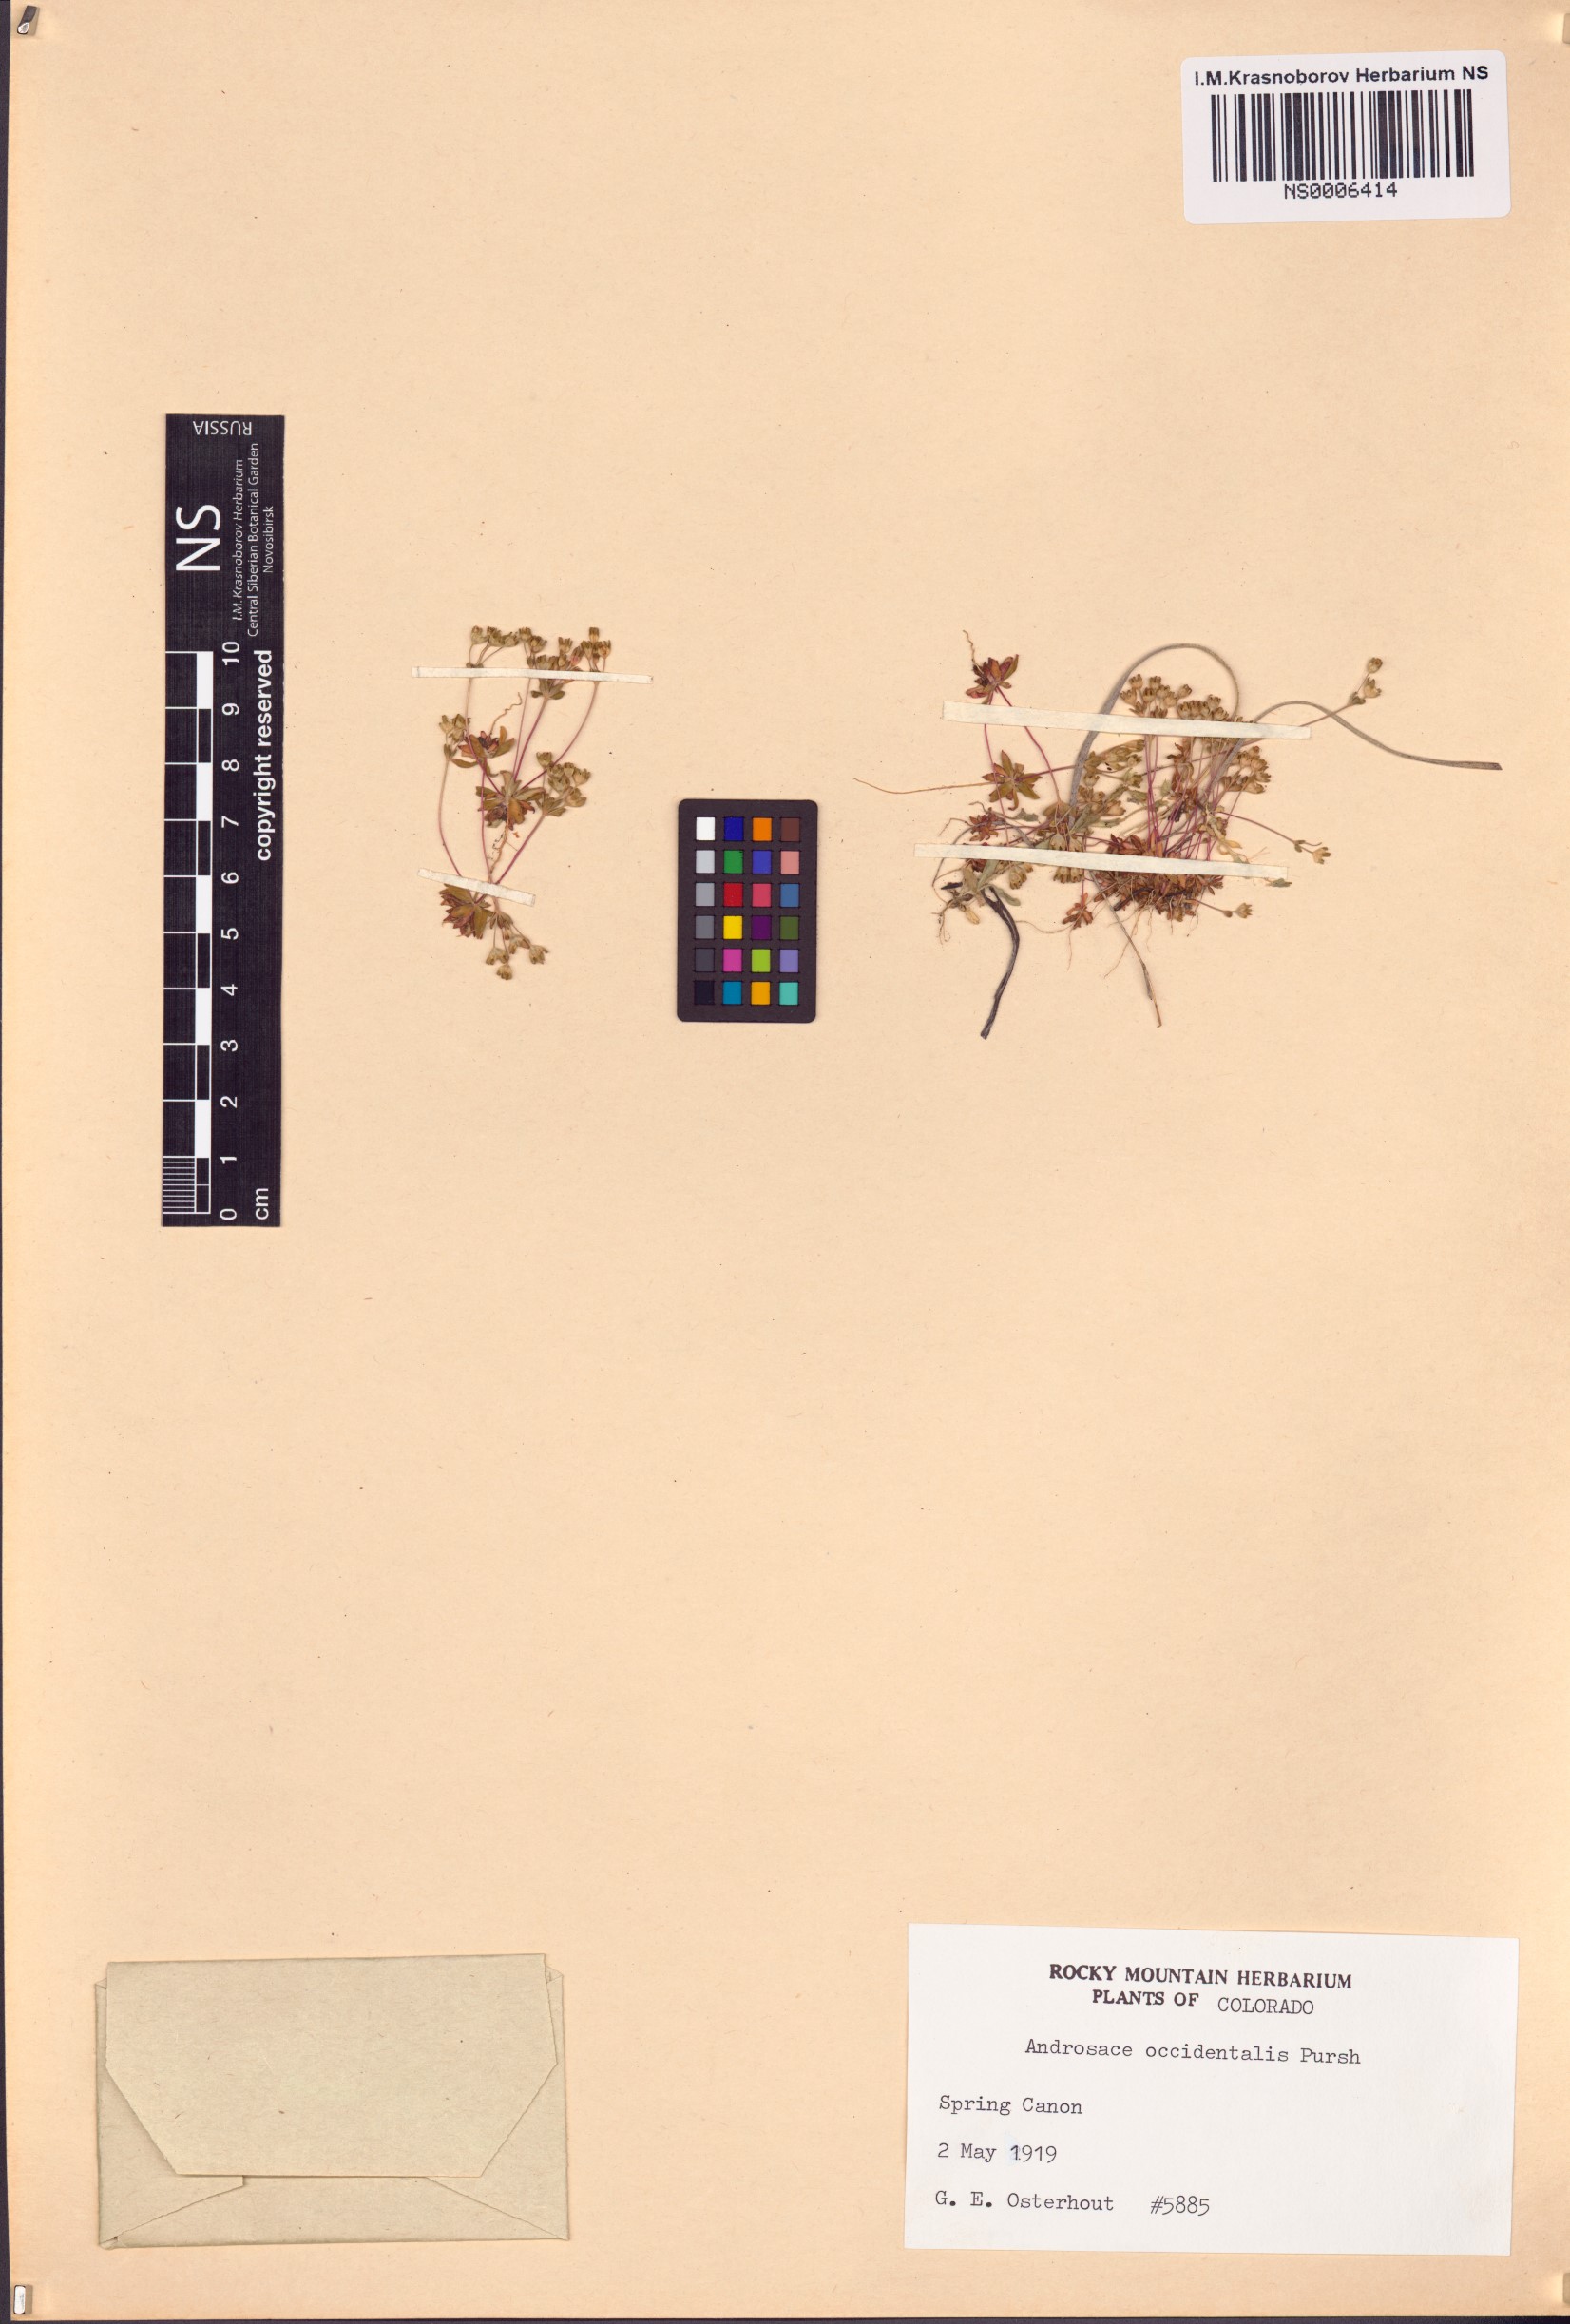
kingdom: Plantae
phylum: Tracheophyta
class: Magnoliopsida
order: Ericales
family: Primulaceae
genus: Androsace
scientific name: Androsace occidentalis
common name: West rock-jasmine
